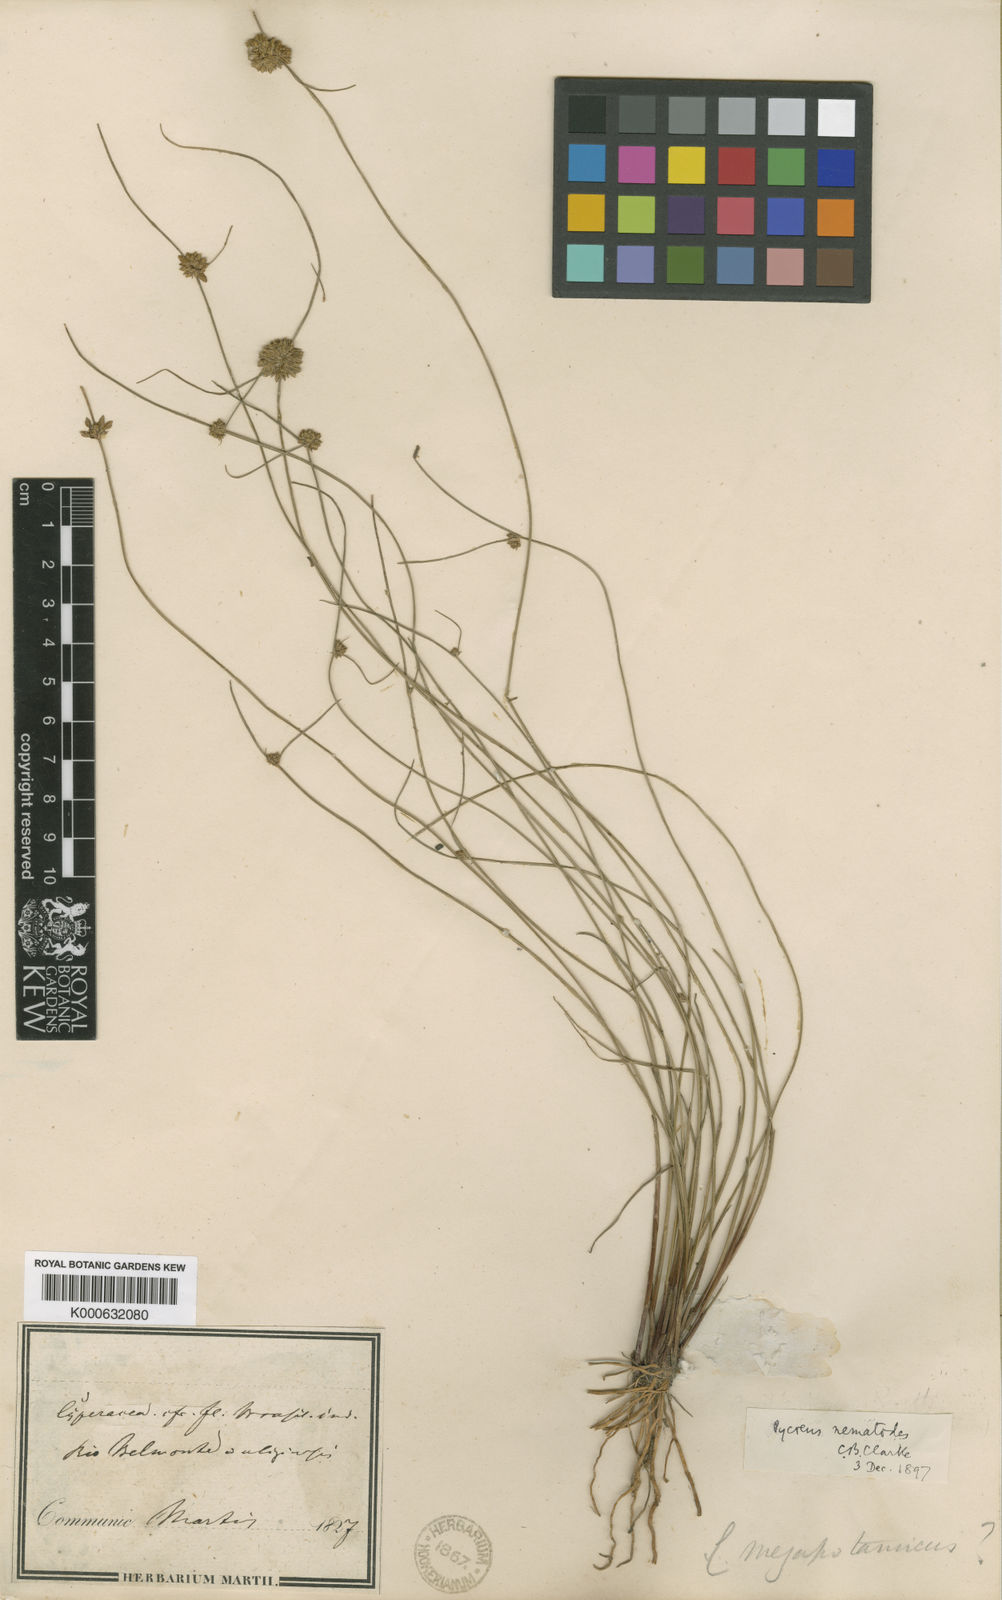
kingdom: Plantae
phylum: Tracheophyta
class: Liliopsida
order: Poales
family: Cyperaceae
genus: Cyperus
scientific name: Cyperus megapotamicus
